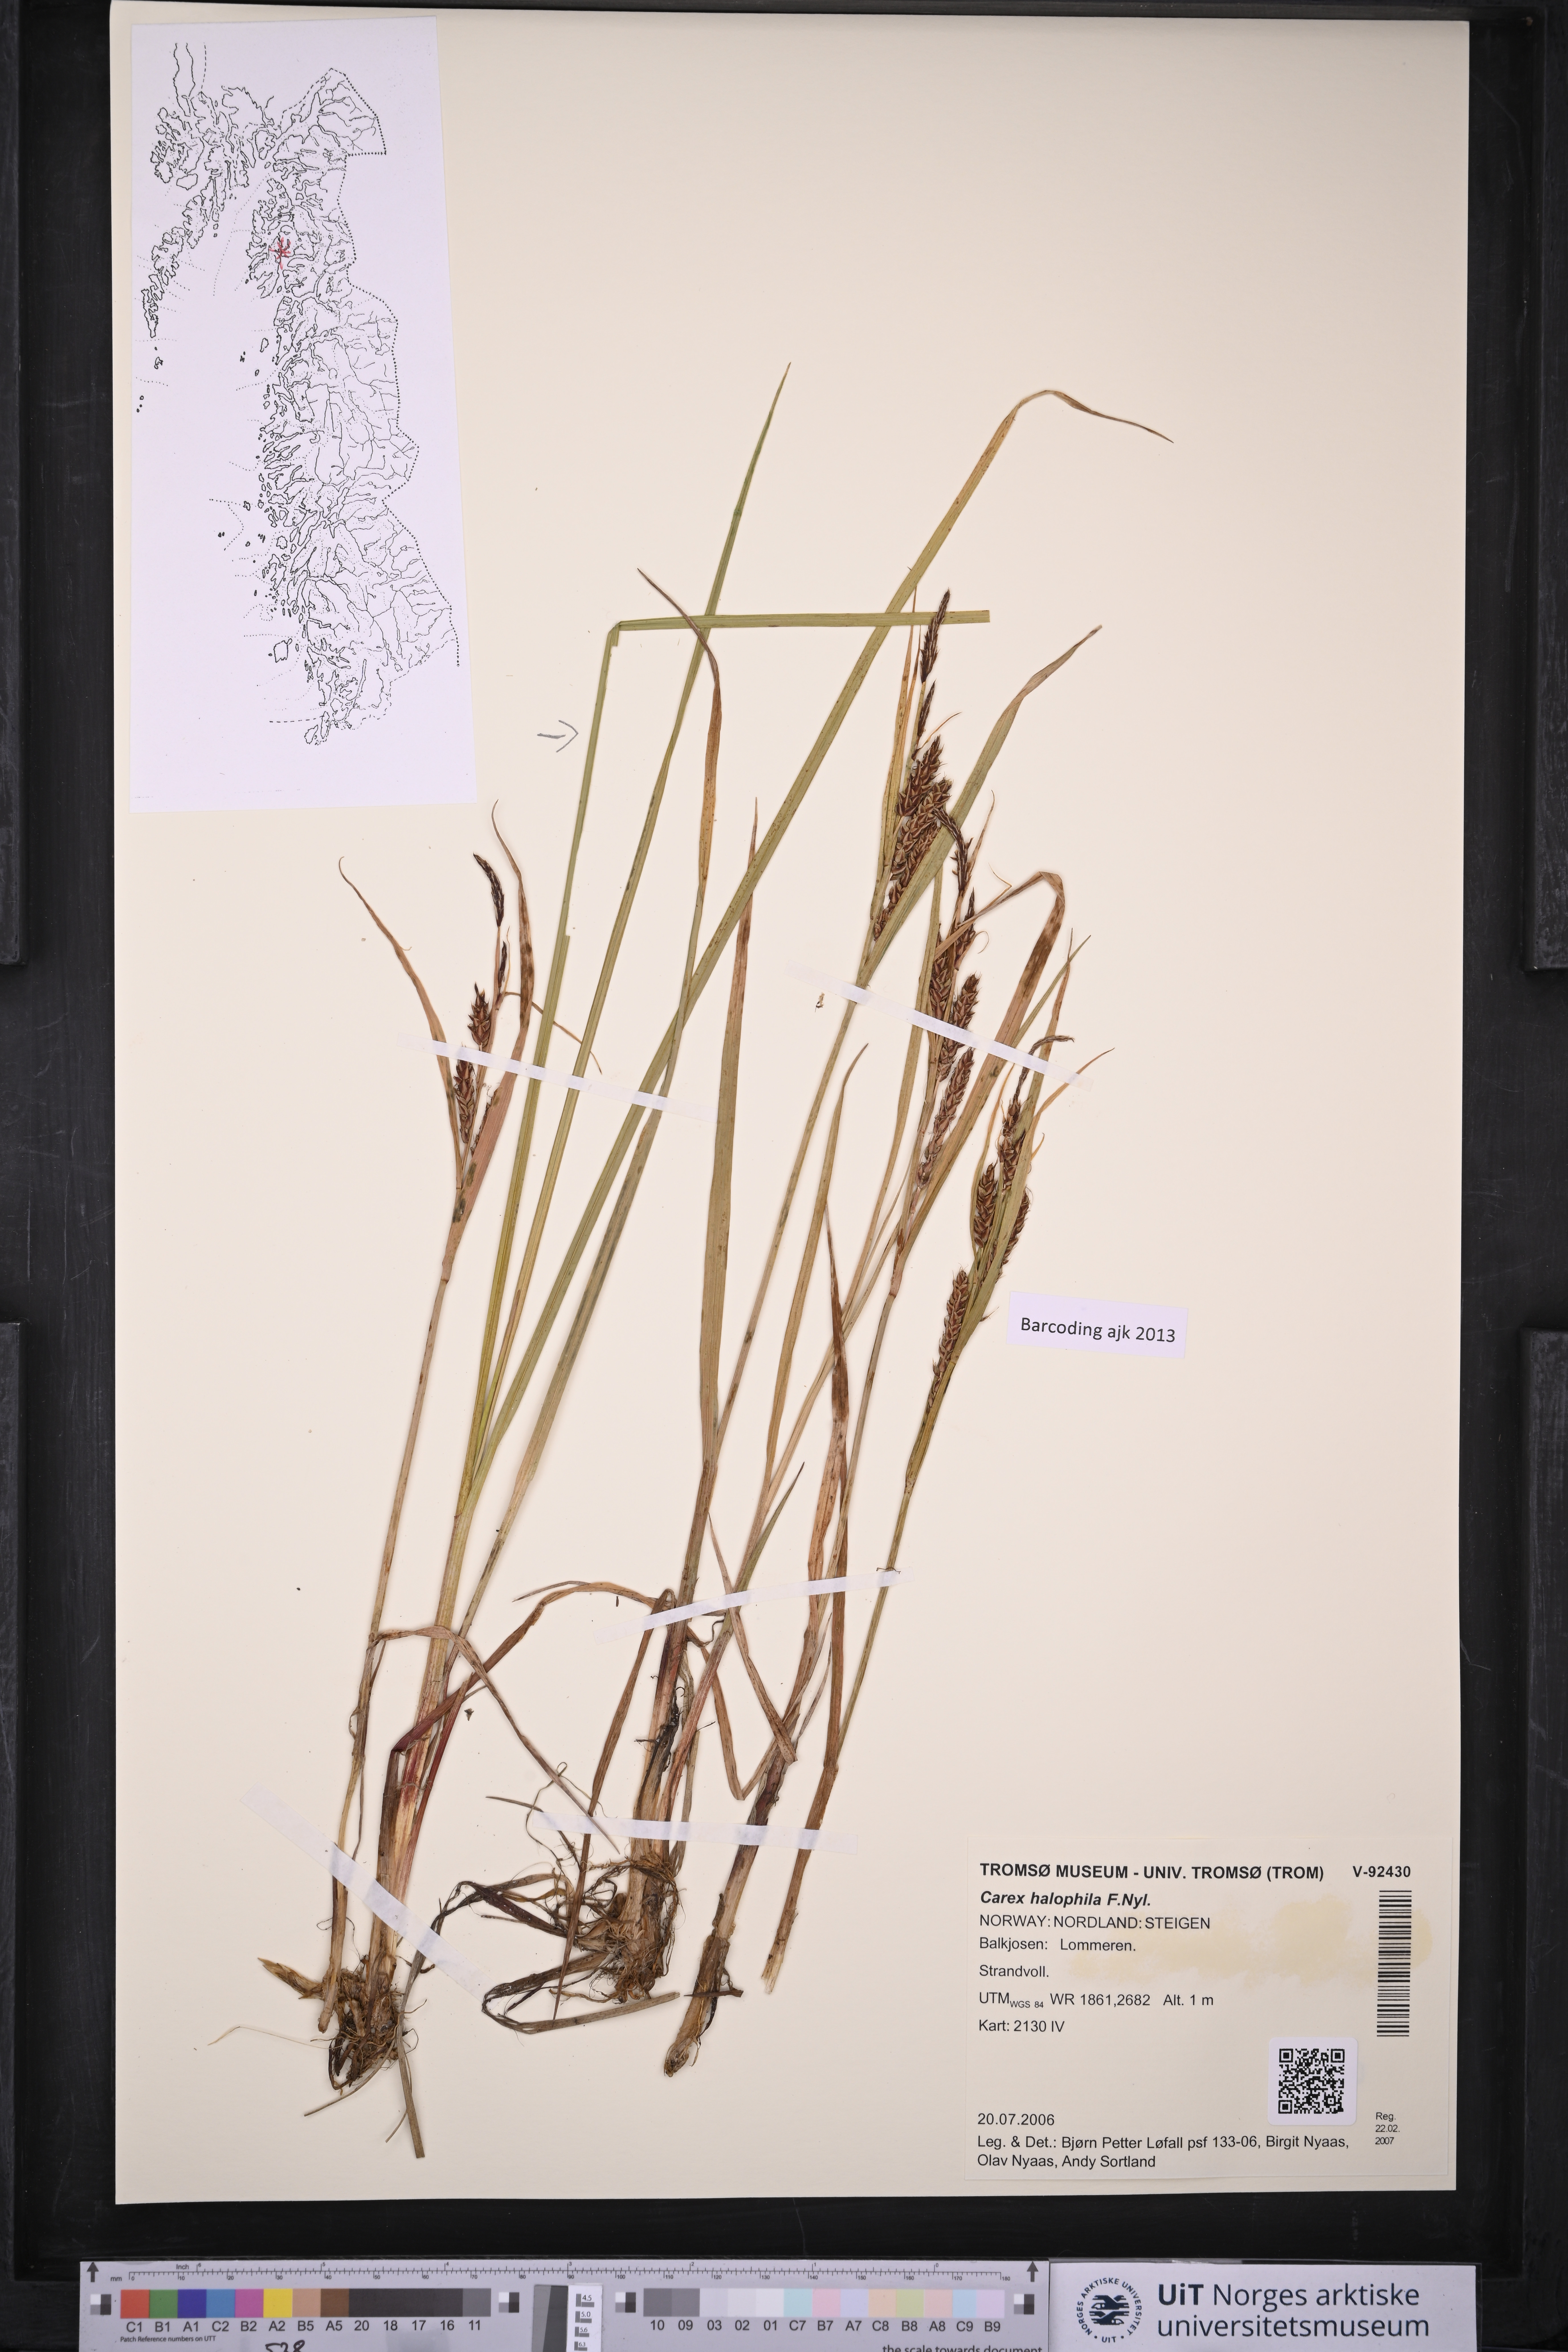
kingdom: Plantae
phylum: Tracheophyta
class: Liliopsida
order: Poales
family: Cyperaceae
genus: Carex
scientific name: Carex halophila
